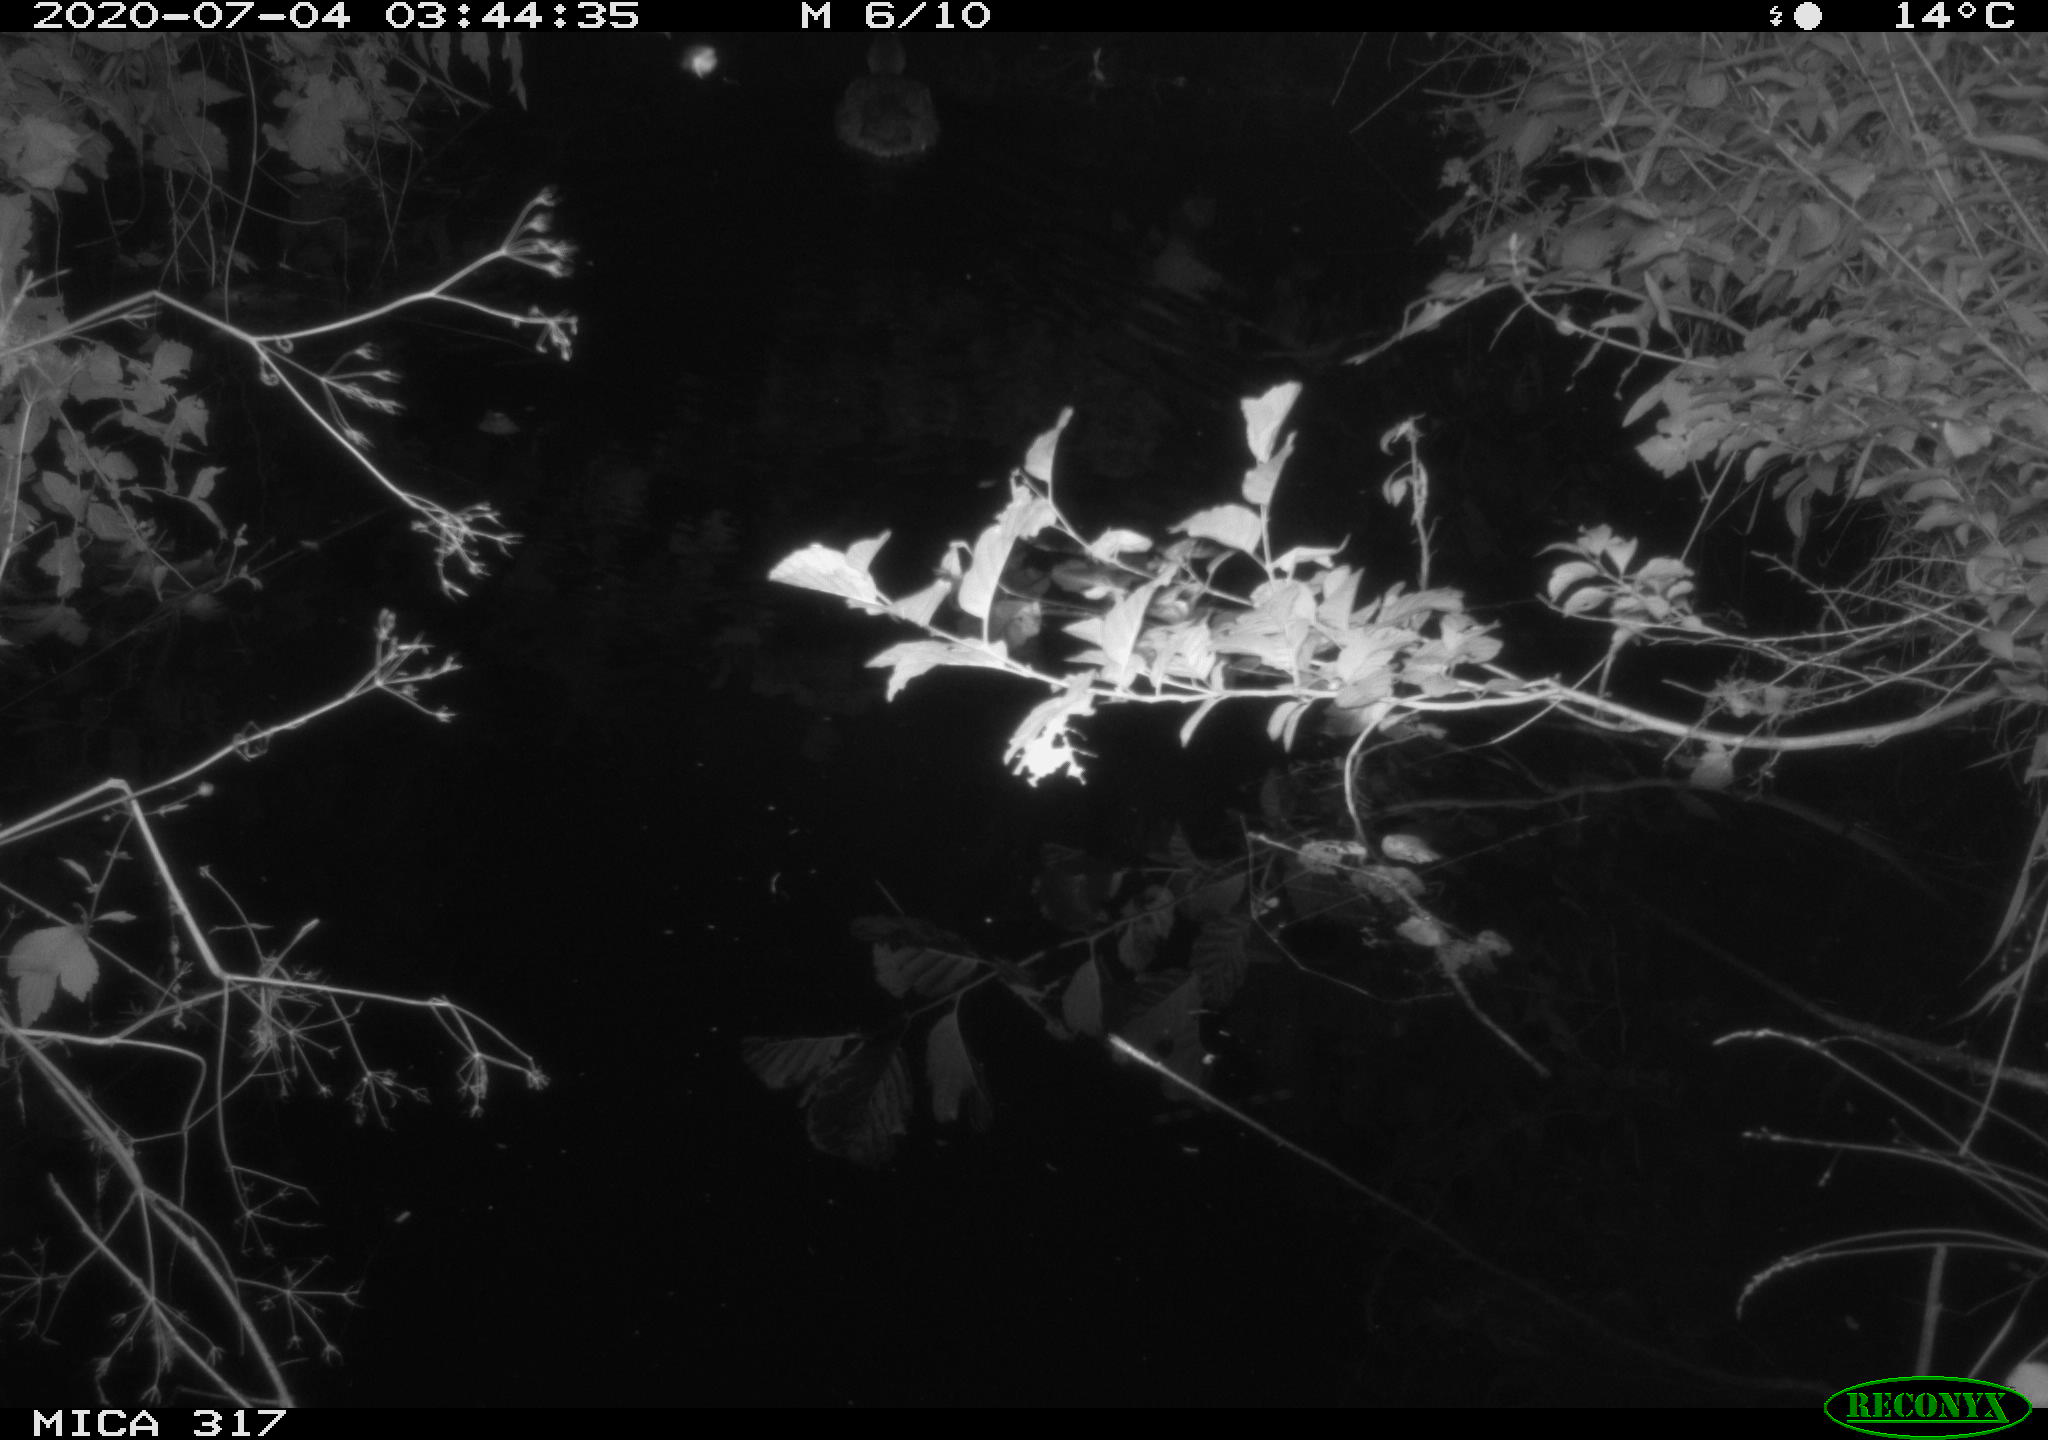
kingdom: Animalia
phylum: Chordata
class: Aves
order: Anseriformes
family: Anatidae
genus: Anas
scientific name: Anas platyrhynchos
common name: Mallard
